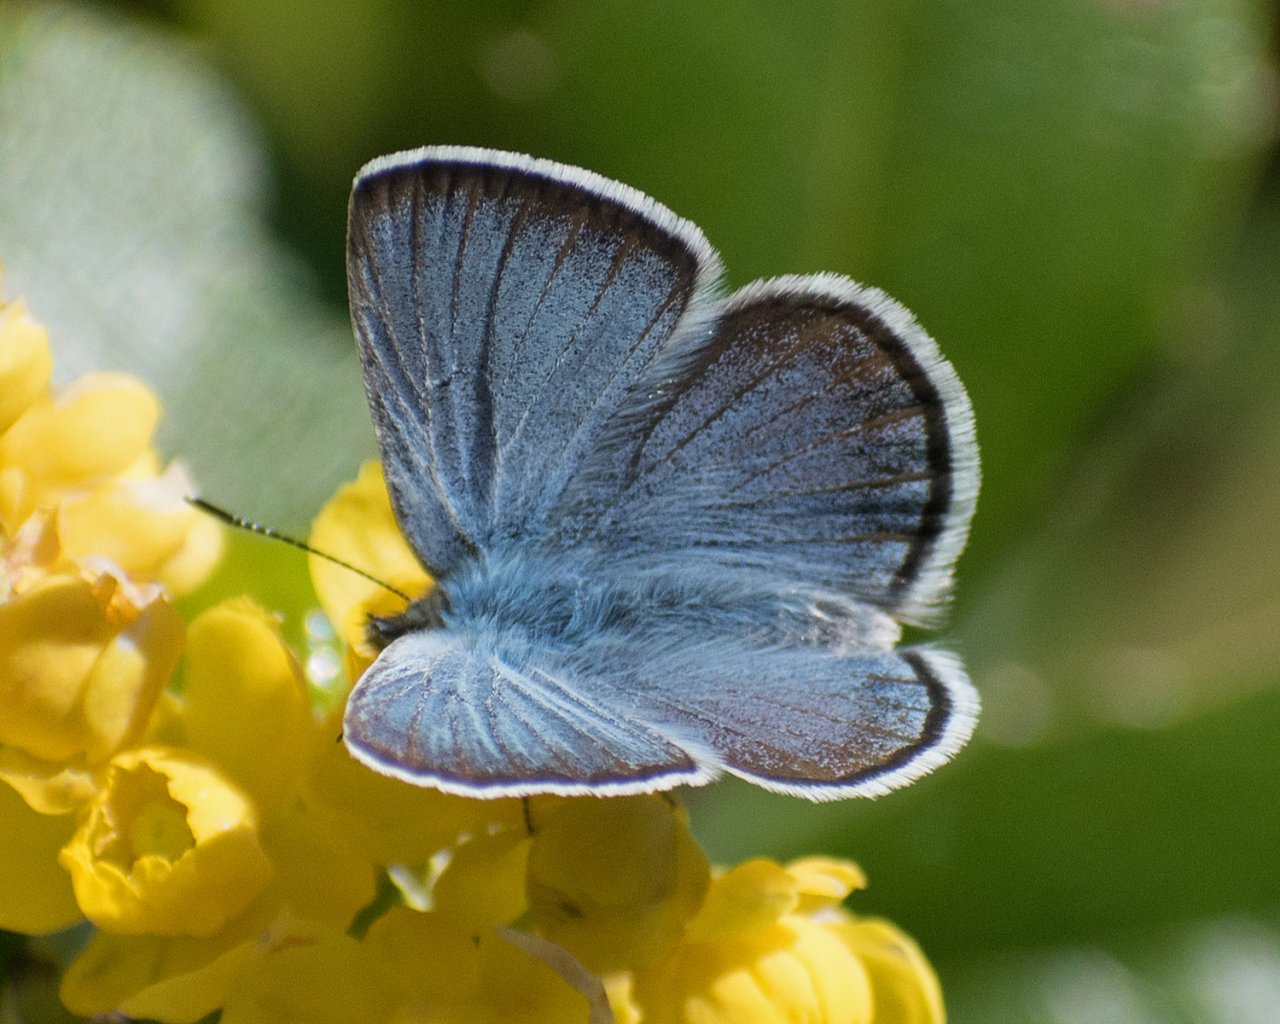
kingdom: Animalia
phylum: Arthropoda
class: Insecta
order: Lepidoptera
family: Lycaenidae
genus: Icaricia
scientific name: Icaricia icarioides
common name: Boisduval's Blue
